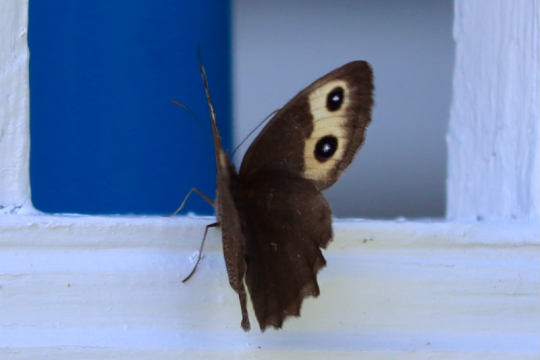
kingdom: Animalia
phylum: Arthropoda
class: Insecta
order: Lepidoptera
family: Nymphalidae
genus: Cercyonis
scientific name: Cercyonis pegala
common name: Common Wood-Nymph
